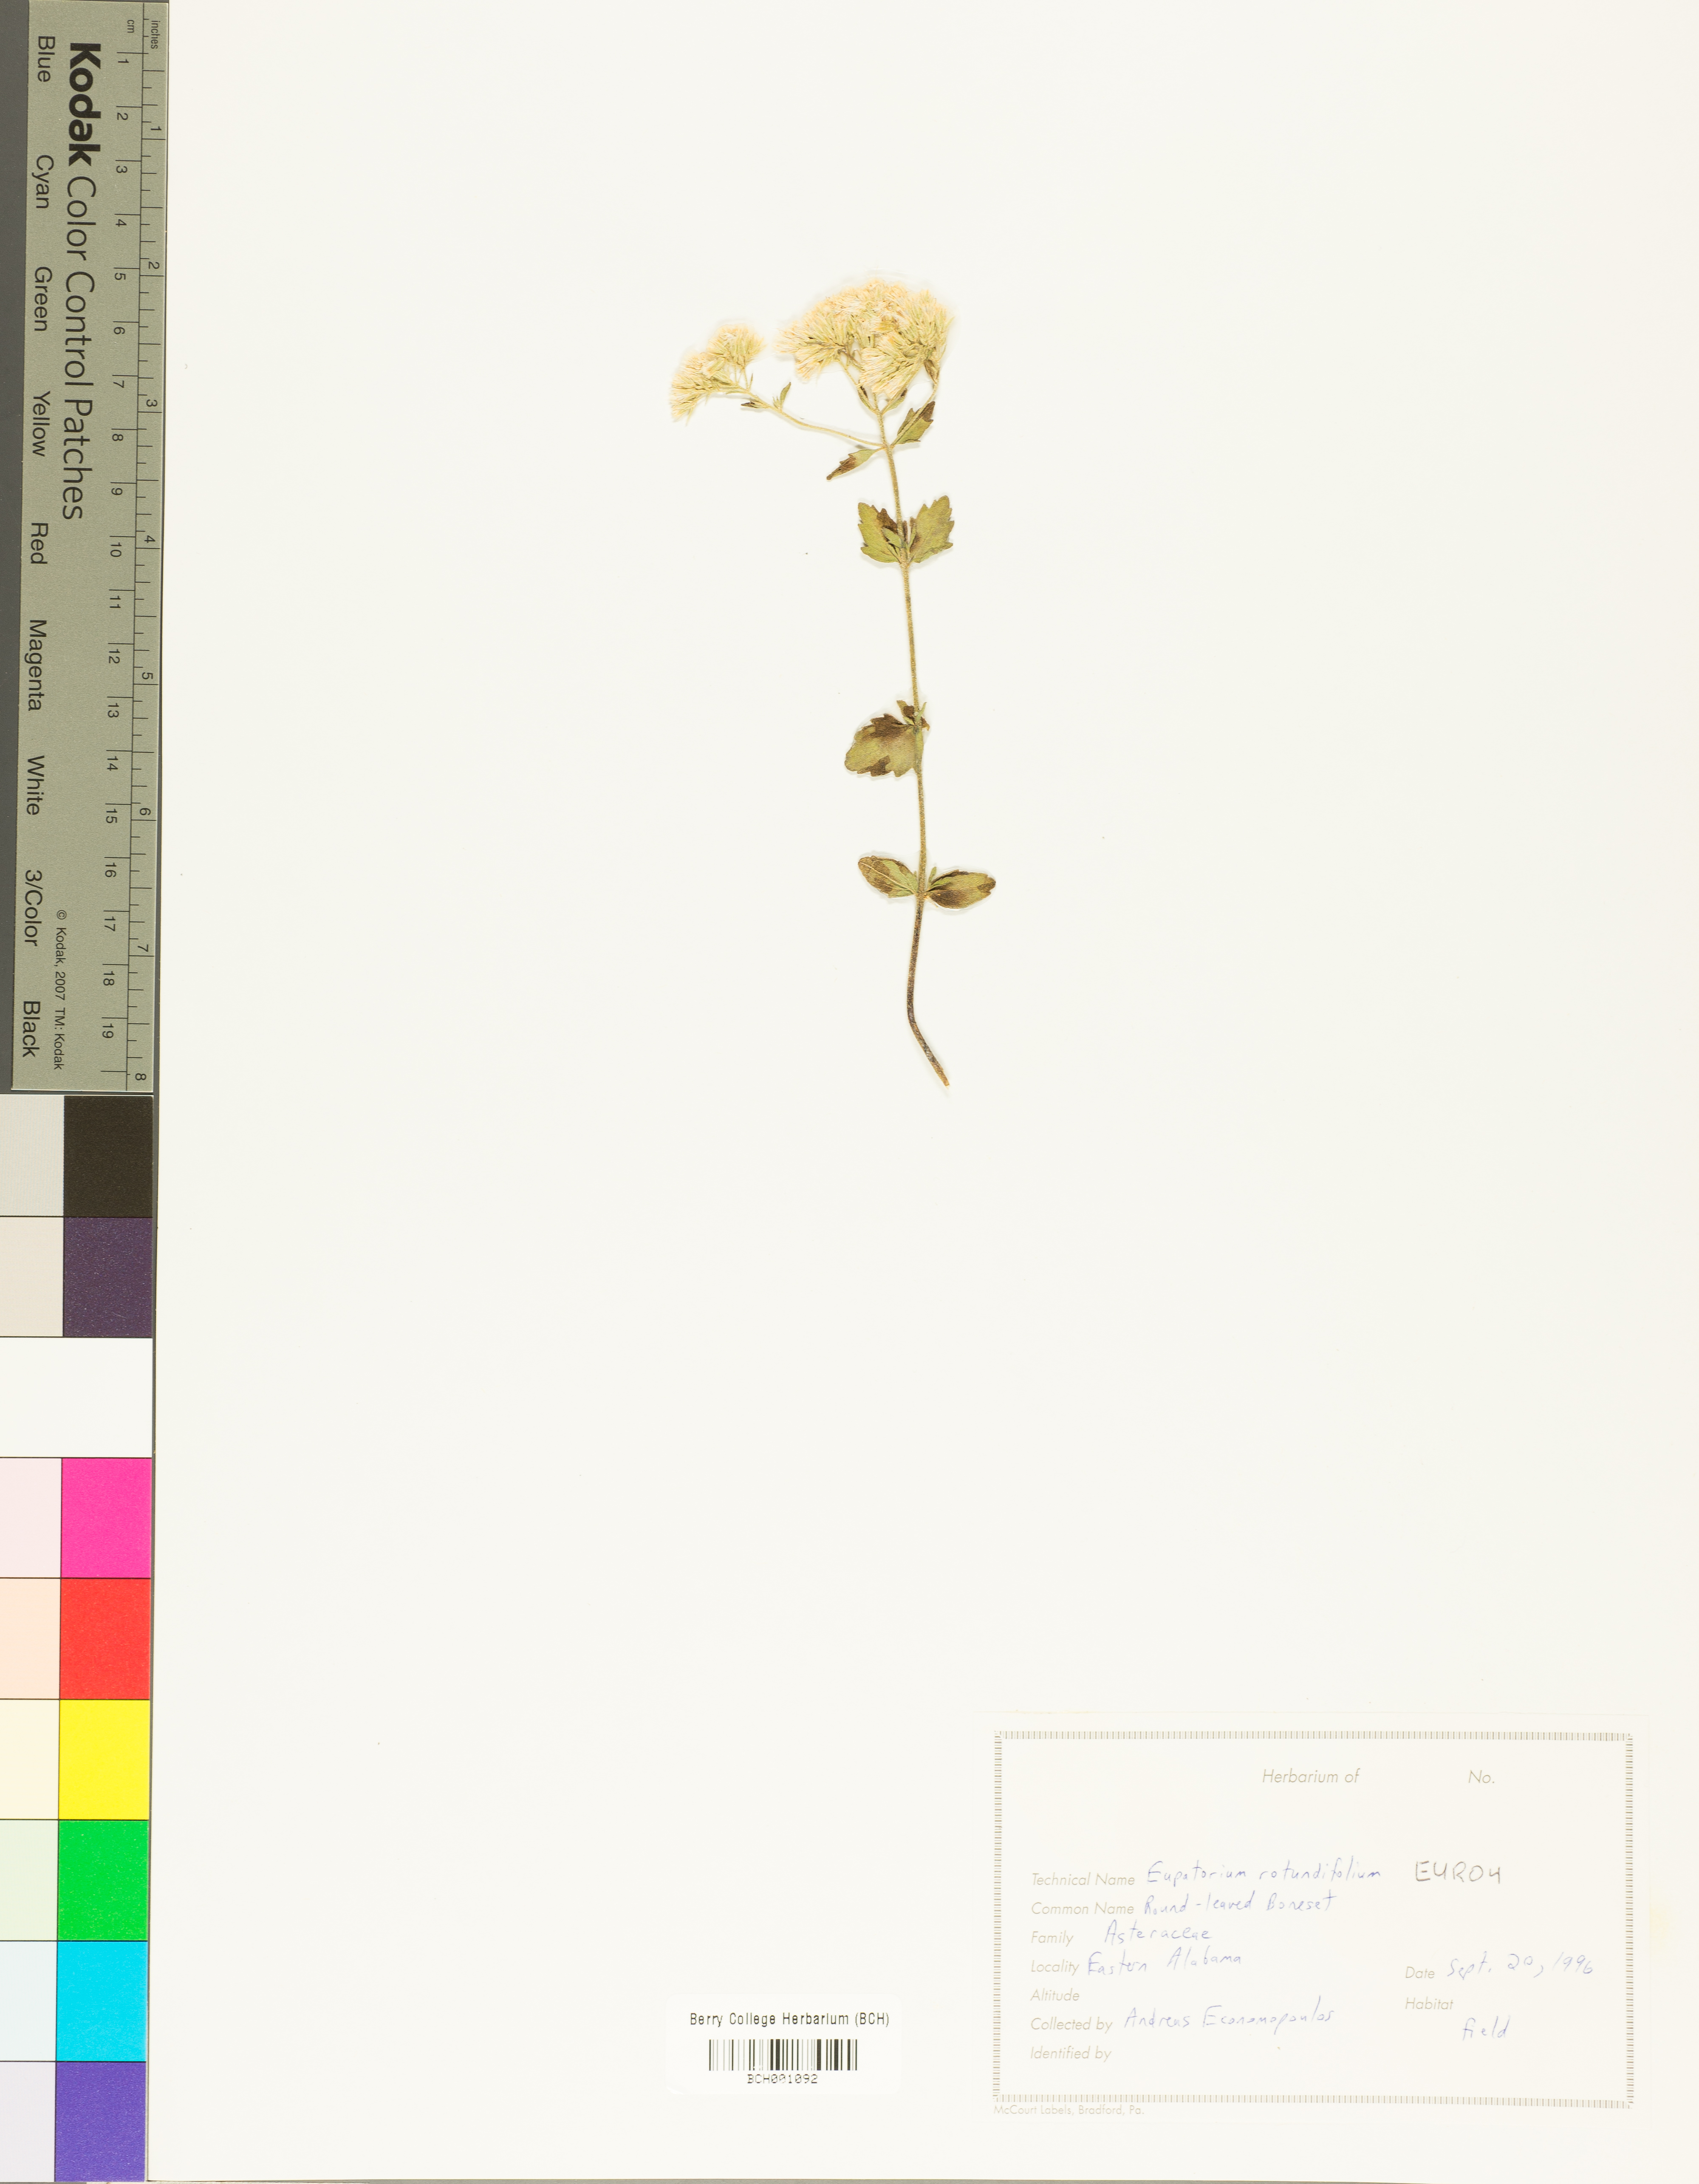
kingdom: Plantae
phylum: Tracheophyta
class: Magnoliopsida
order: Asterales
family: Asteraceae
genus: Eupatorium
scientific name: Eupatorium rotundifolium
